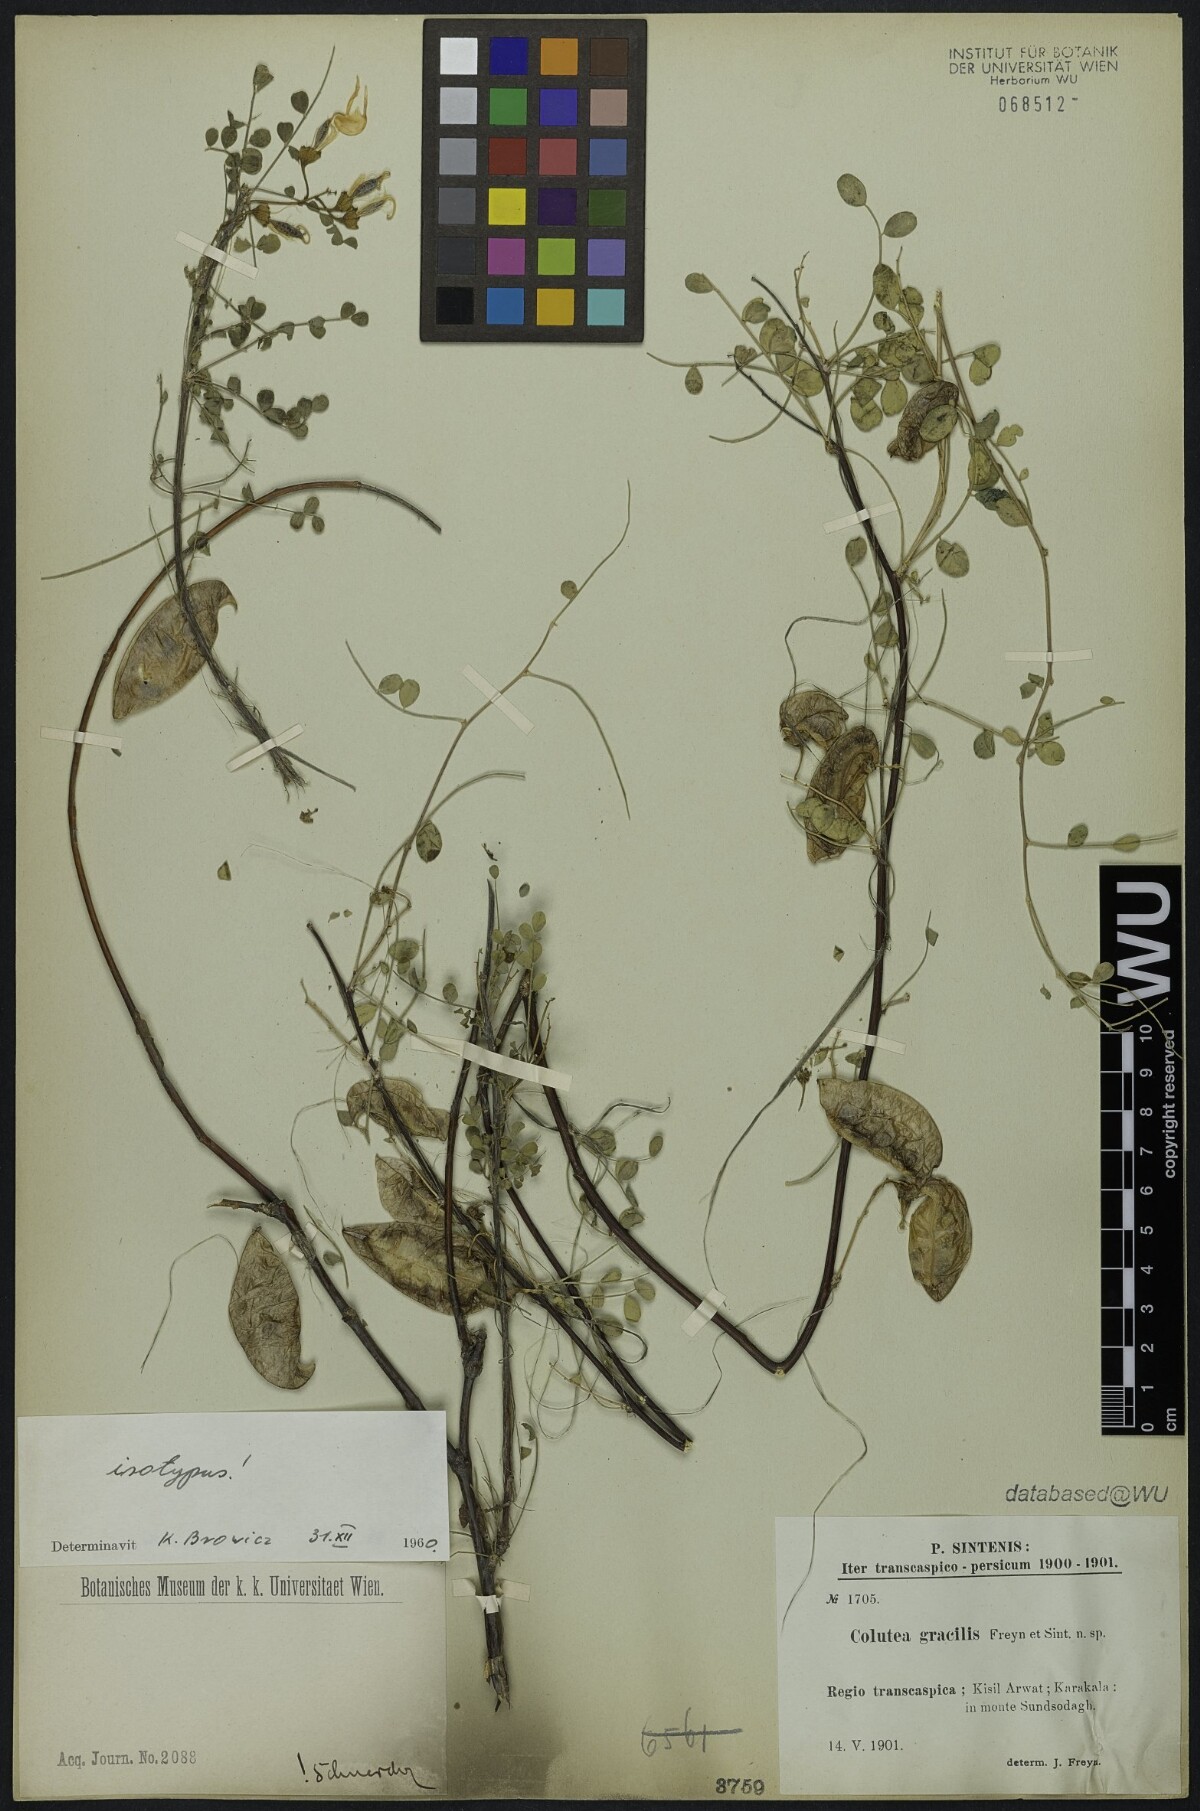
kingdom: Plantae
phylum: Tracheophyta
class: Magnoliopsida
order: Fabales
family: Fabaceae
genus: Colutea
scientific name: Colutea gracilis
